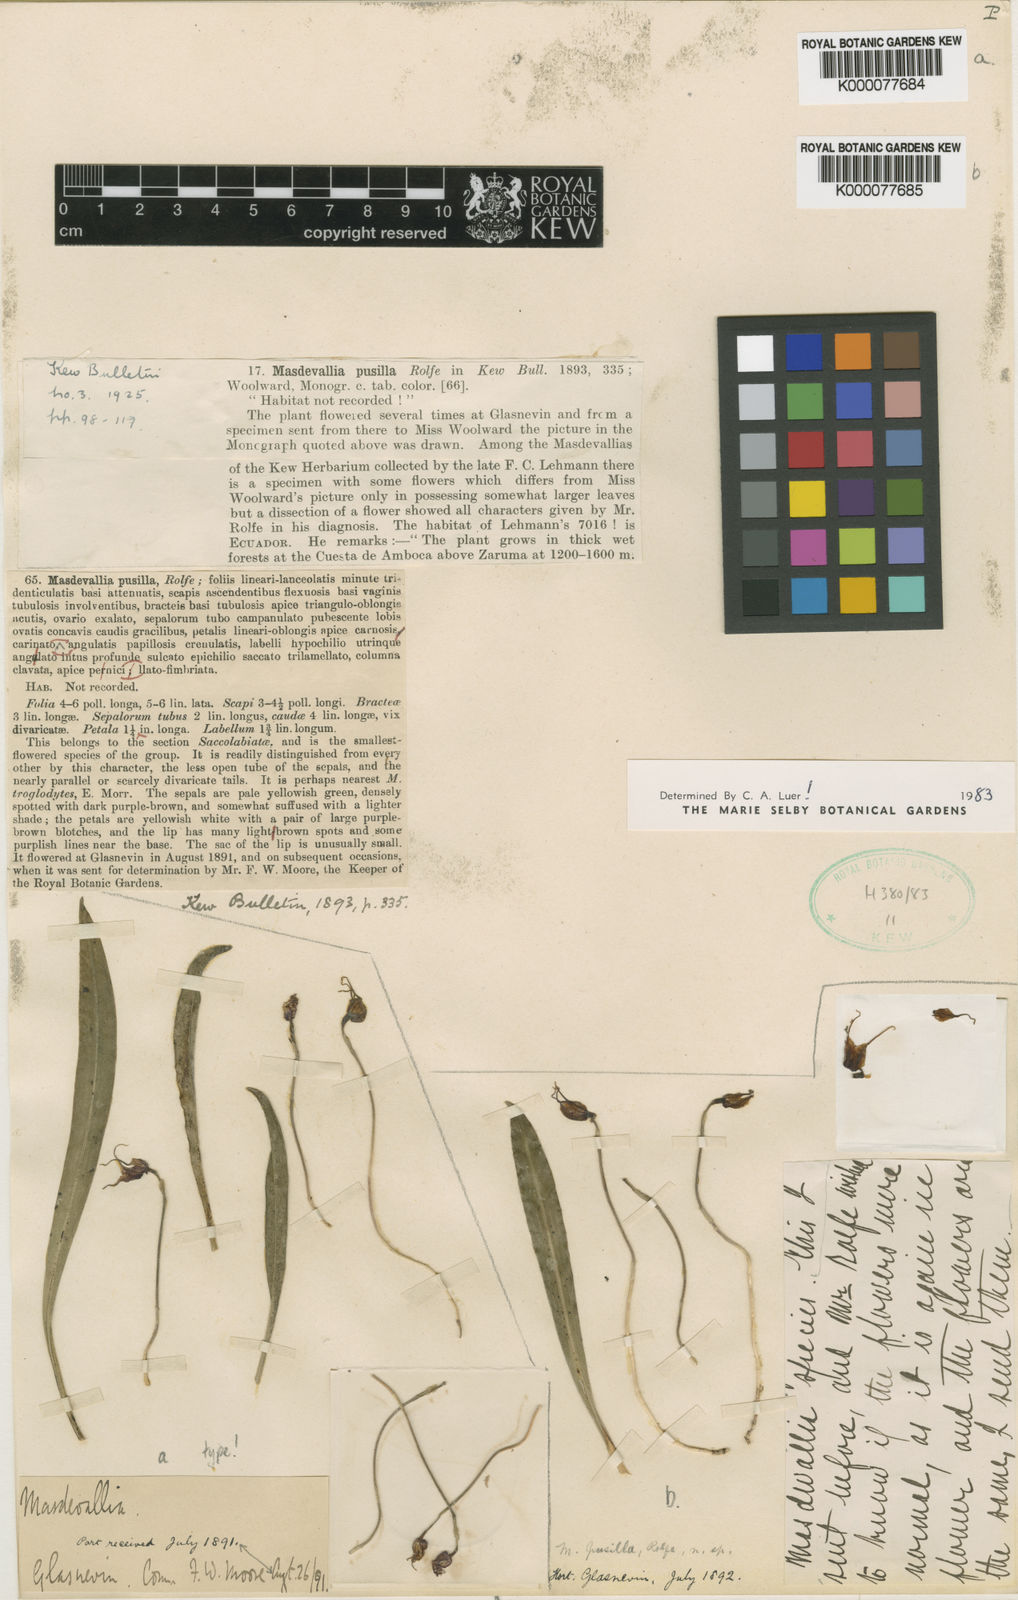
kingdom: Plantae
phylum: Tracheophyta
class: Liliopsida
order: Asparagales
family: Orchidaceae
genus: Dracula
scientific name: Dracula pusilla
